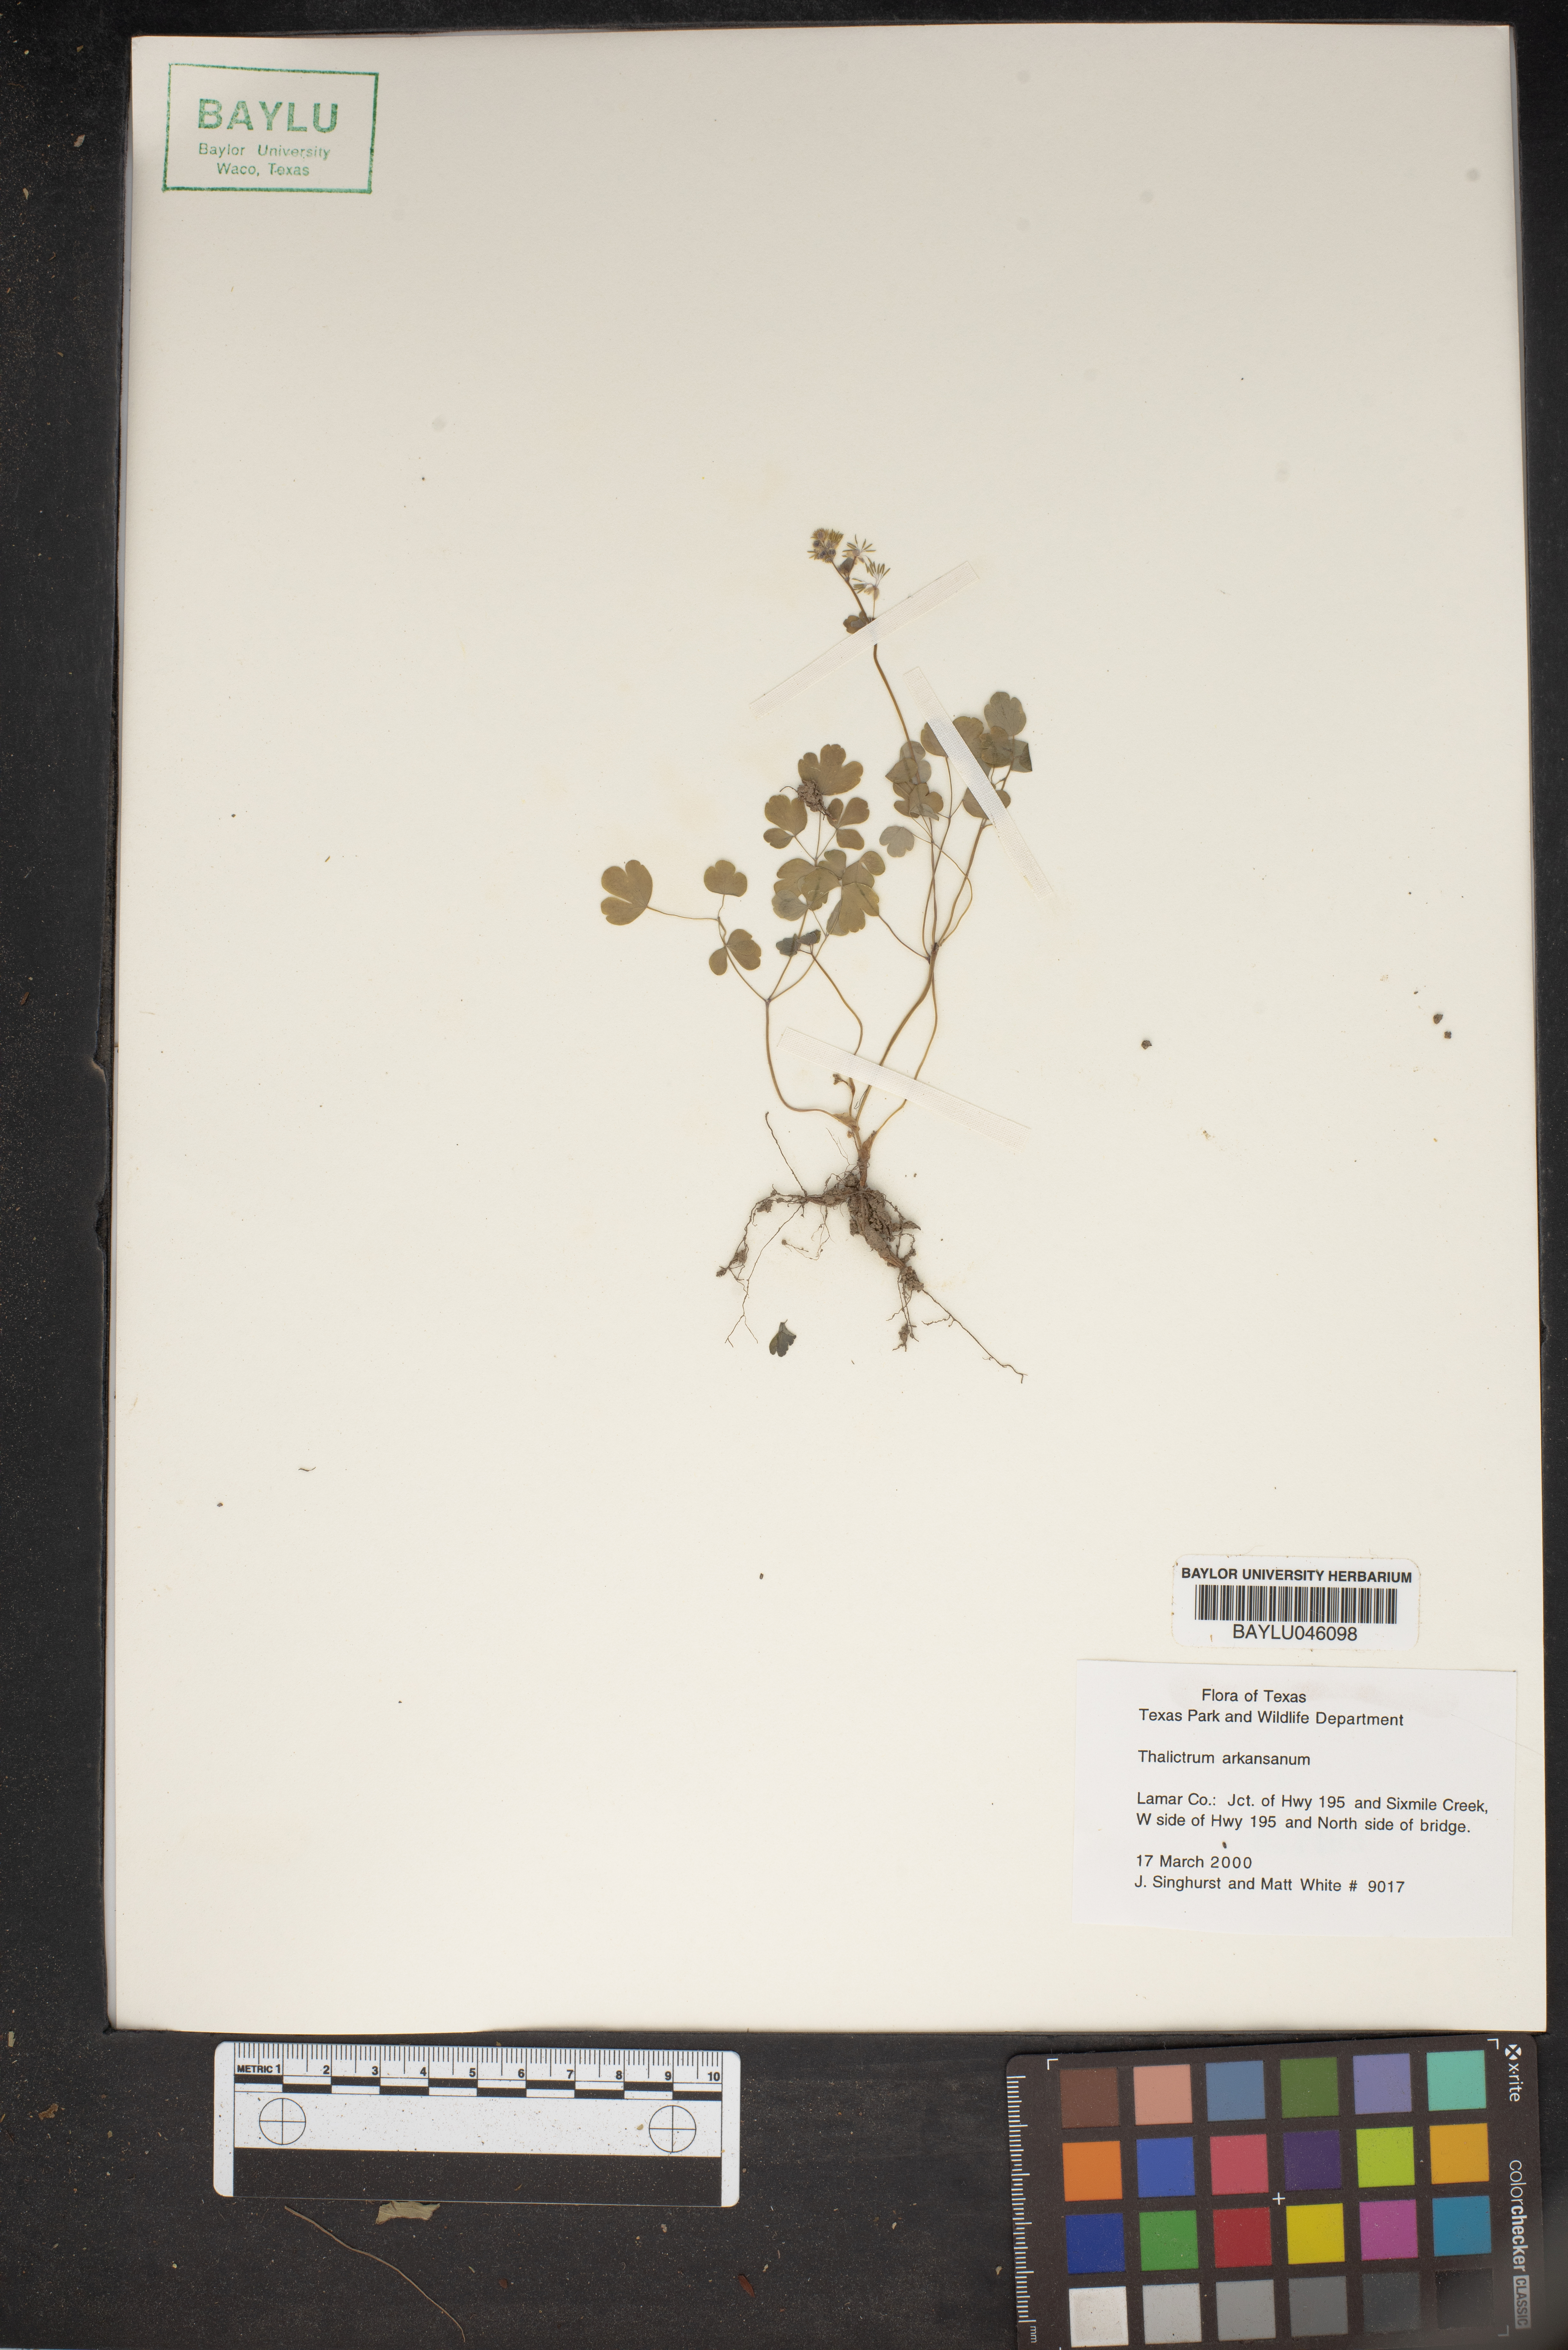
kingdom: Plantae
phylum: Tracheophyta
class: Magnoliopsida
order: Ranunculales
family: Ranunculaceae
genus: Thalictrum
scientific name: Thalictrum arkansanum
